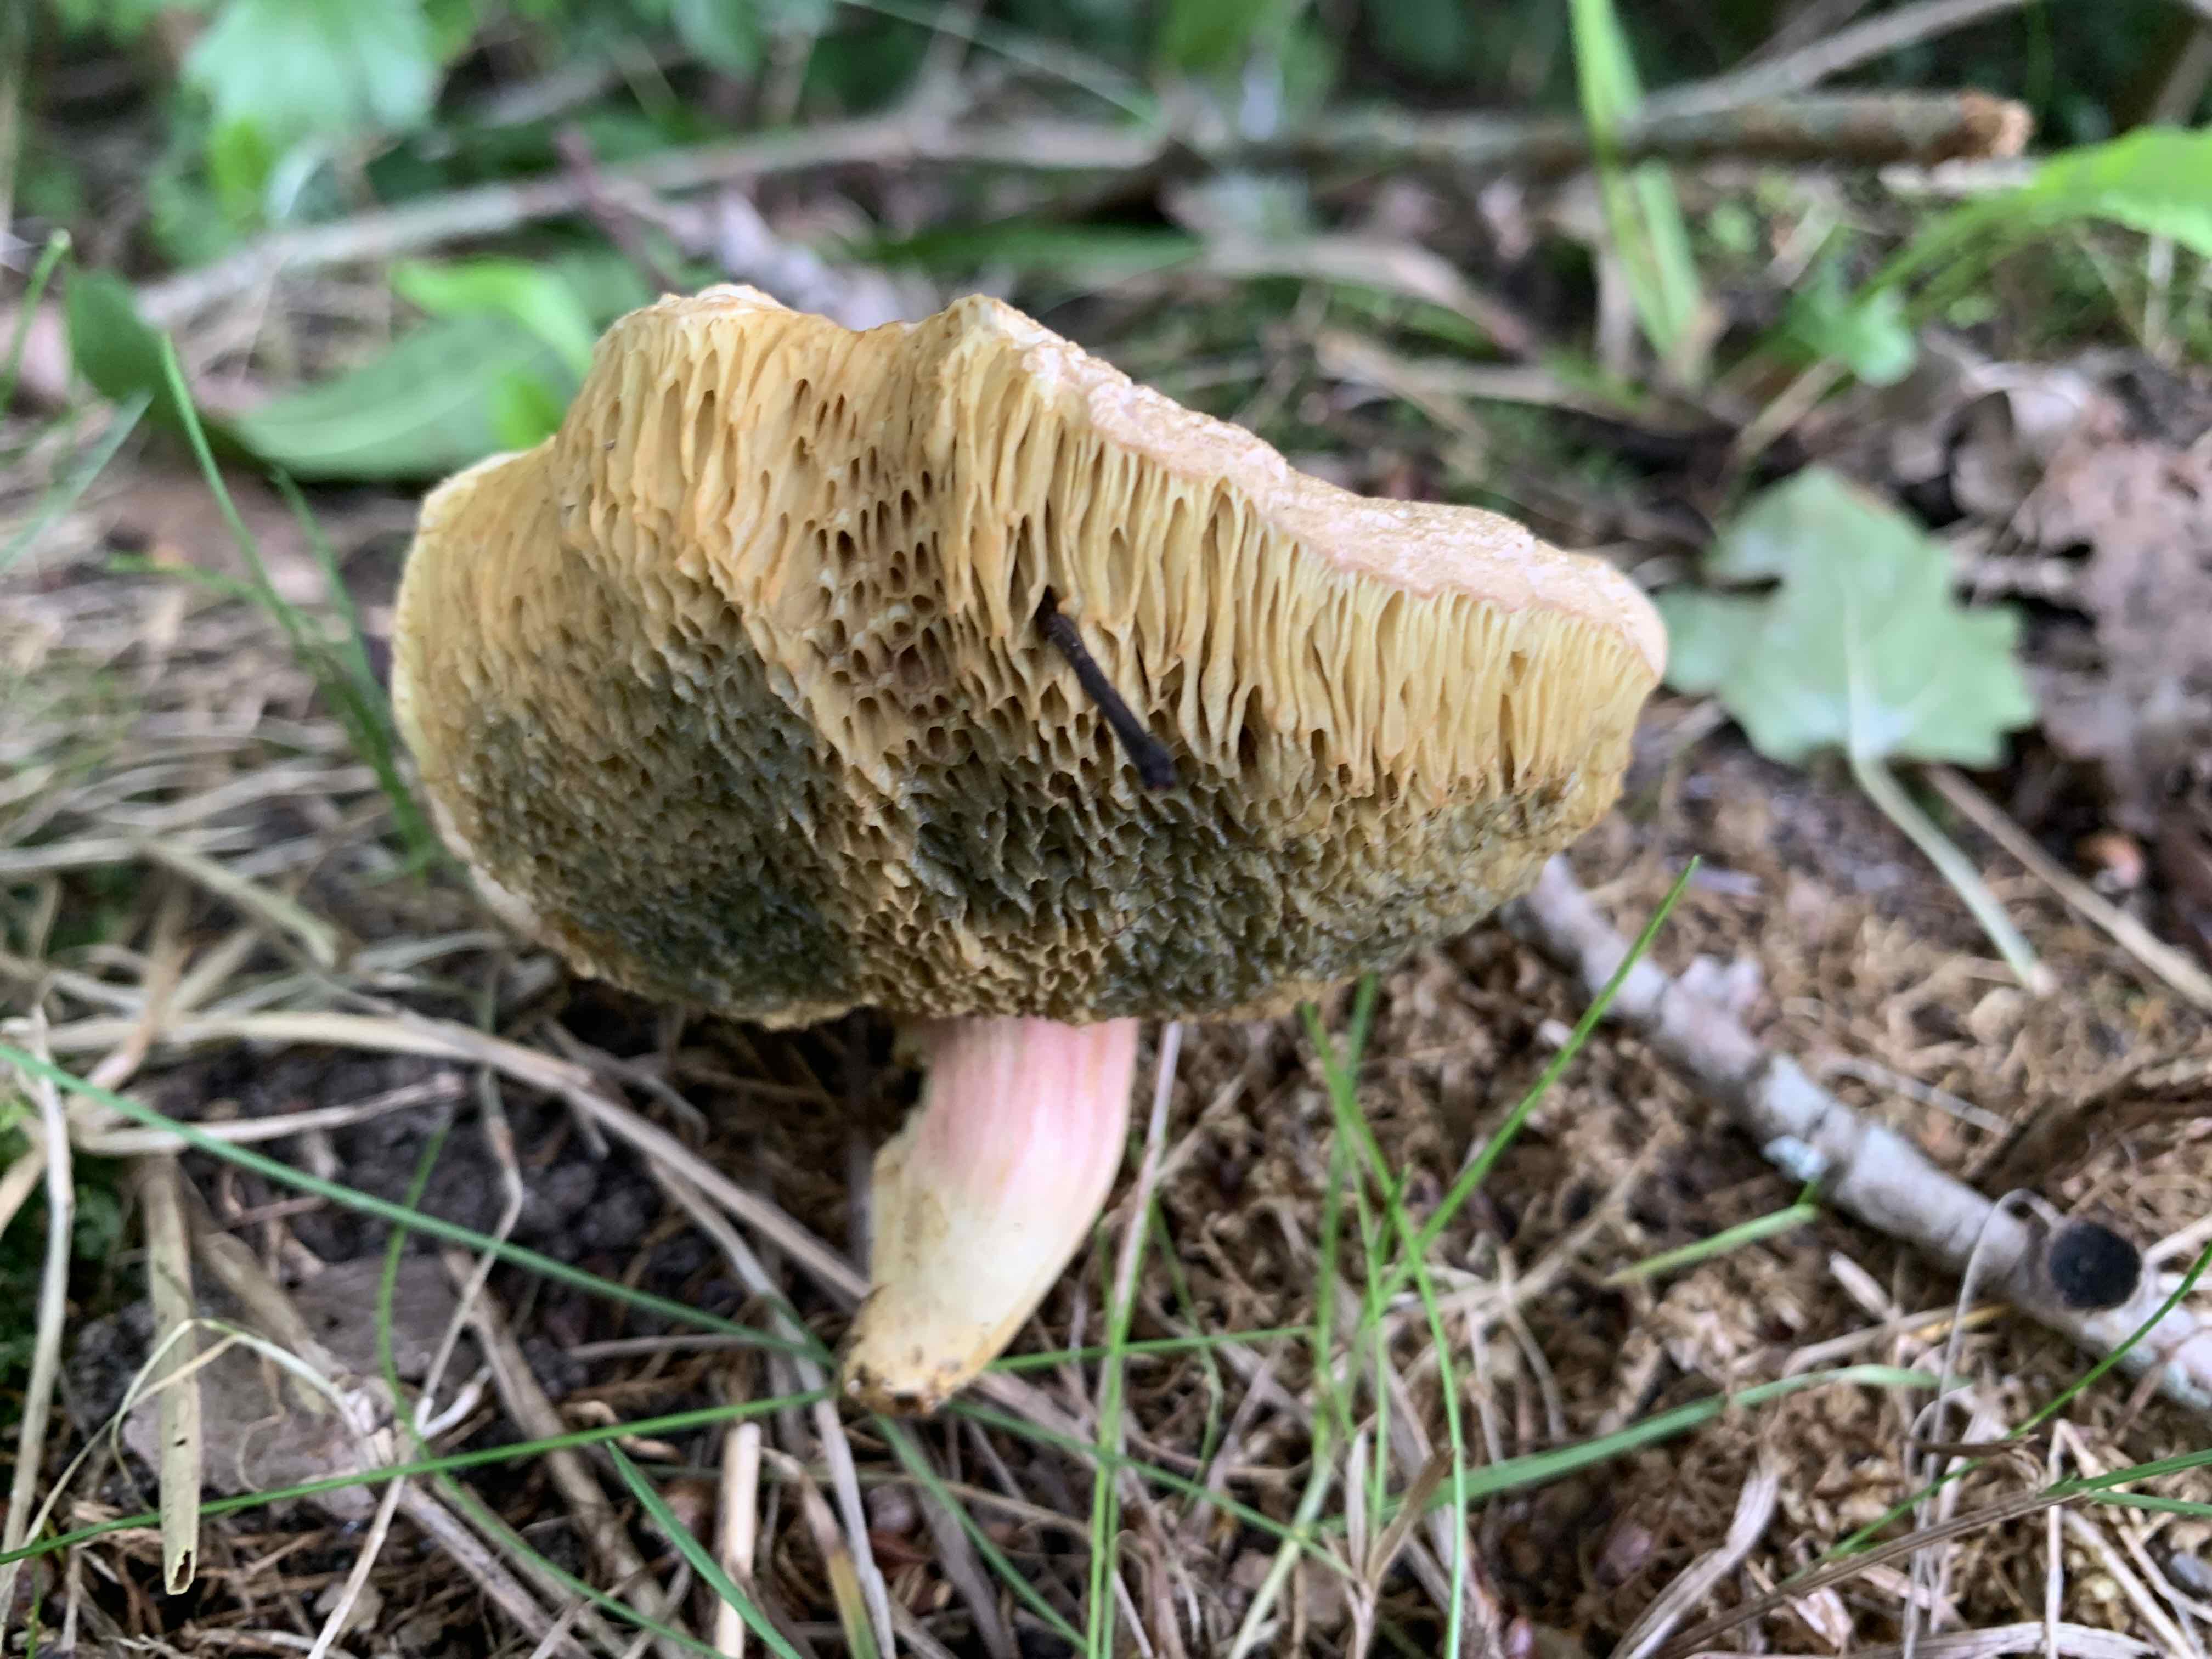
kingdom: Fungi
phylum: Basidiomycota
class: Agaricomycetes
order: Boletales
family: Boletaceae
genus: Hortiboletus
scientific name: Hortiboletus bubalinus
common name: aurora-rørhat
